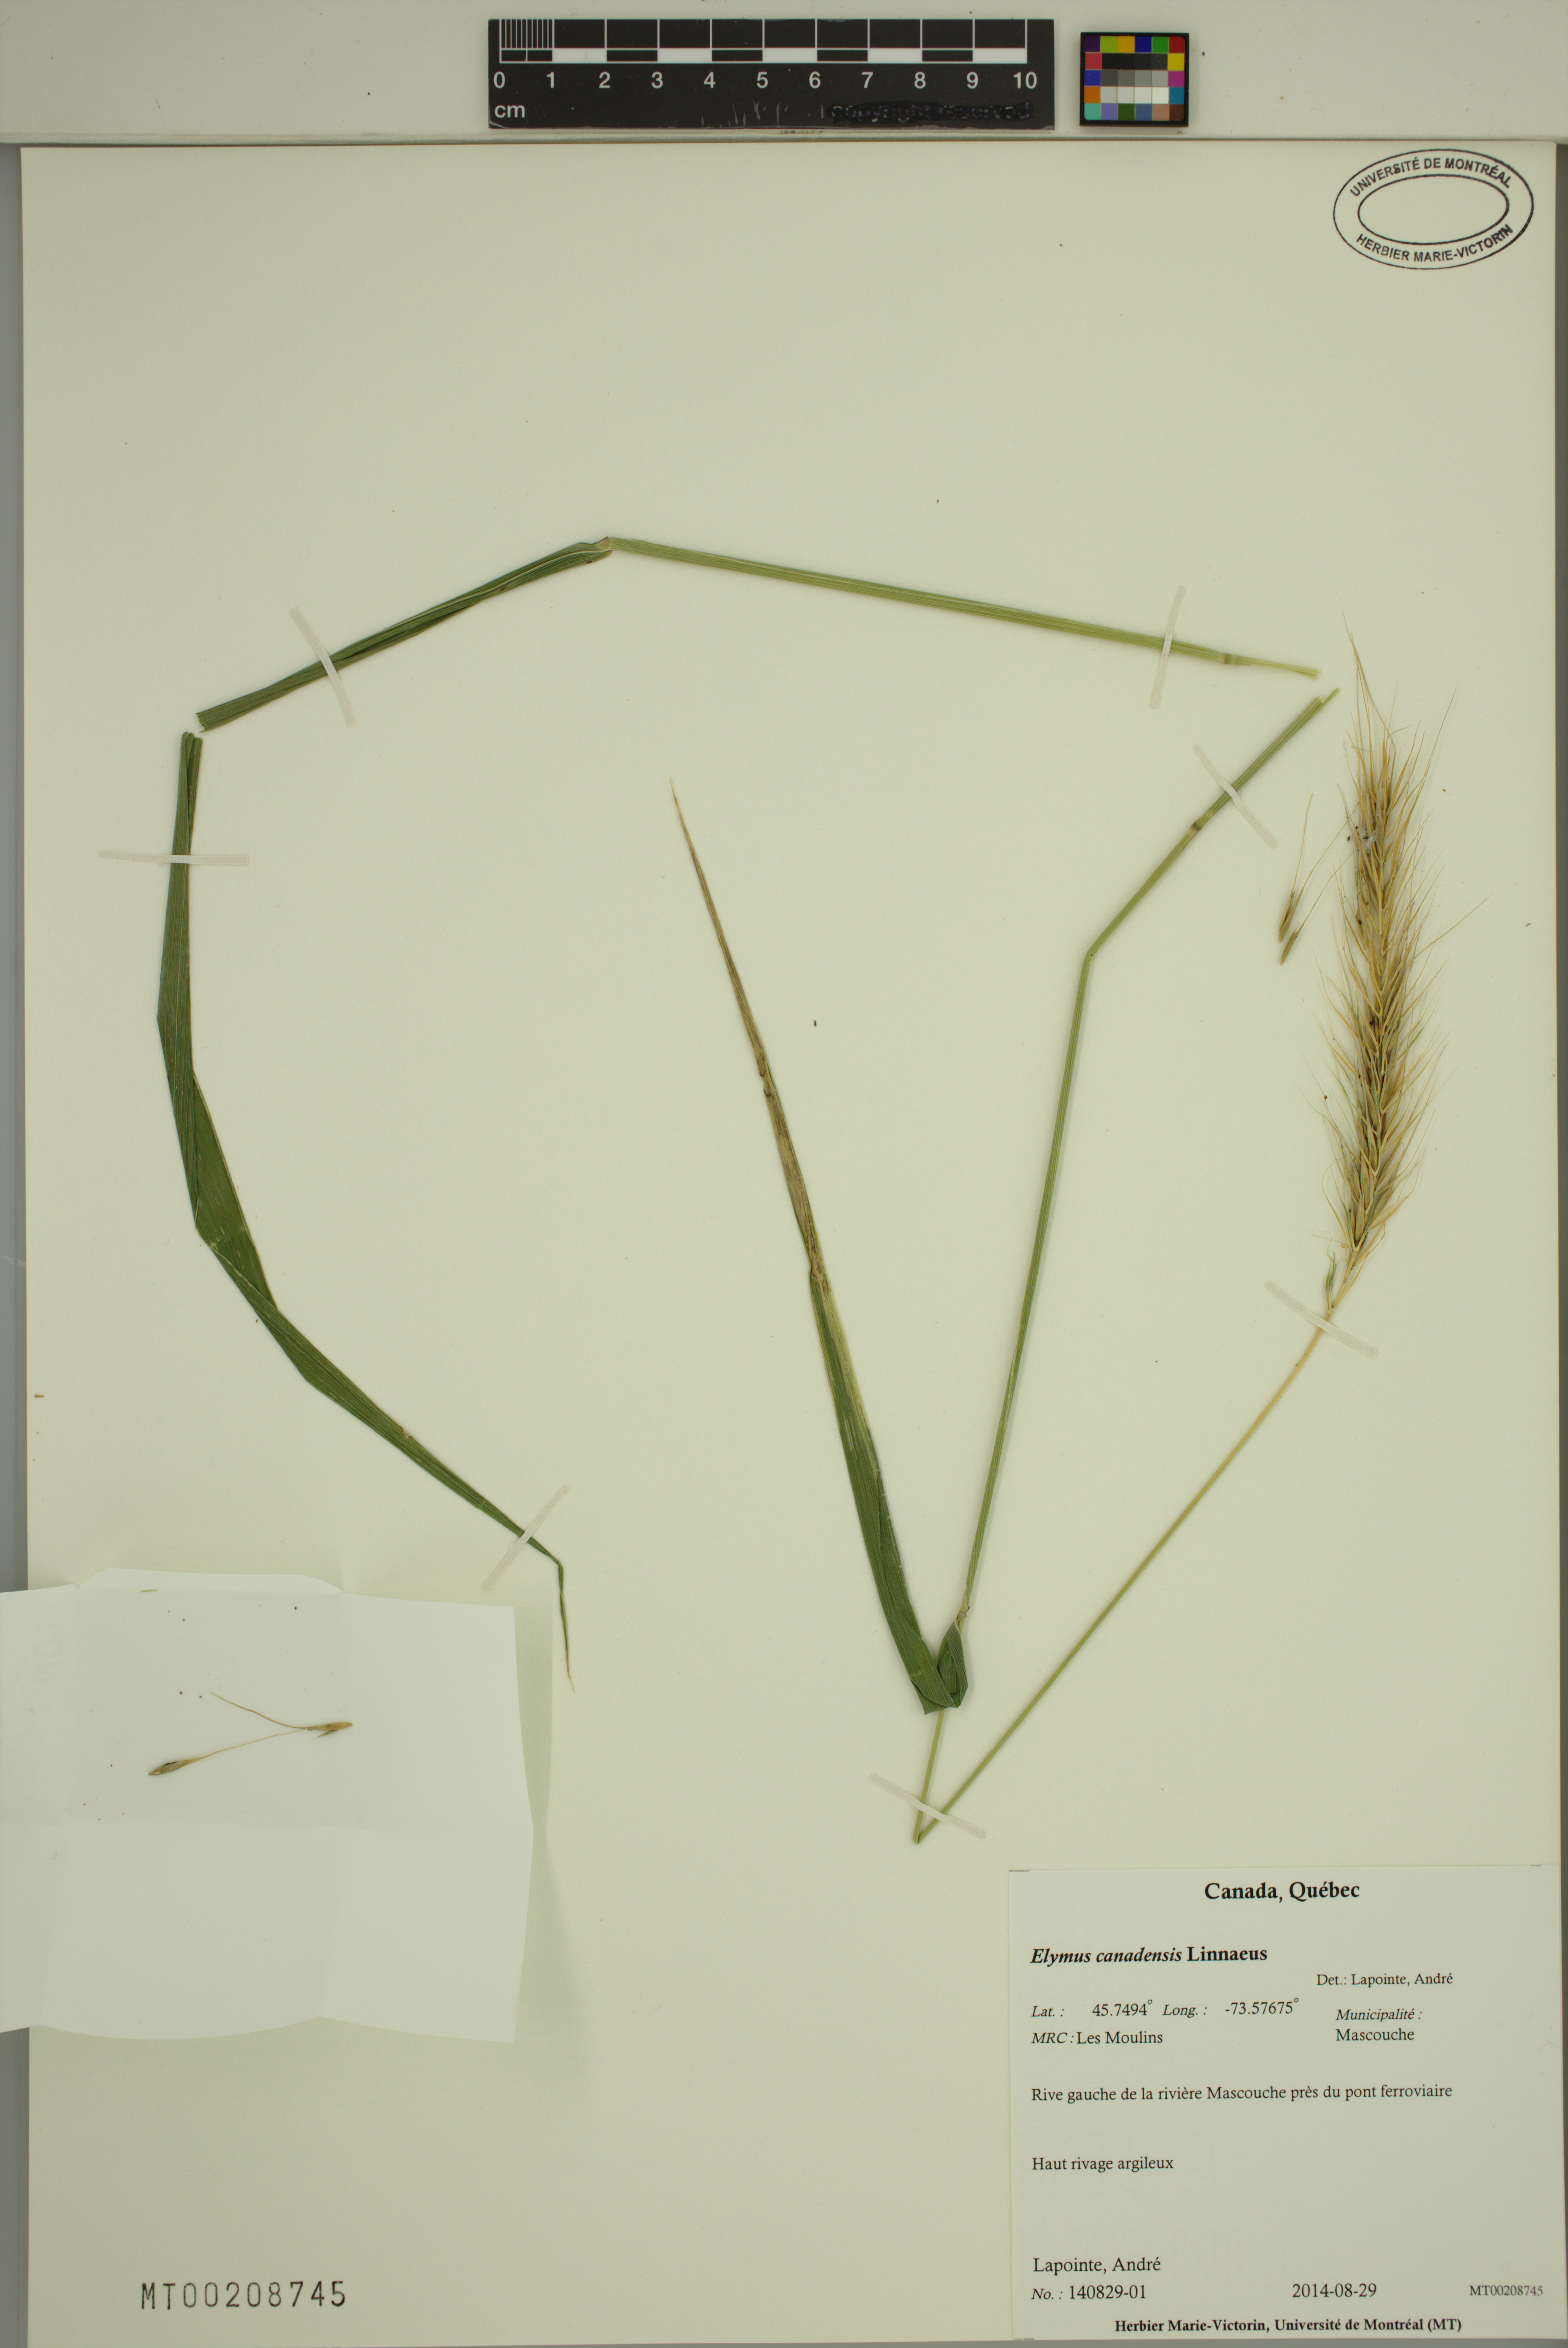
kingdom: Plantae
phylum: Tracheophyta
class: Liliopsida
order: Poales
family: Poaceae
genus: Elymus
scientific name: Elymus canadensis
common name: Canada wild rye
